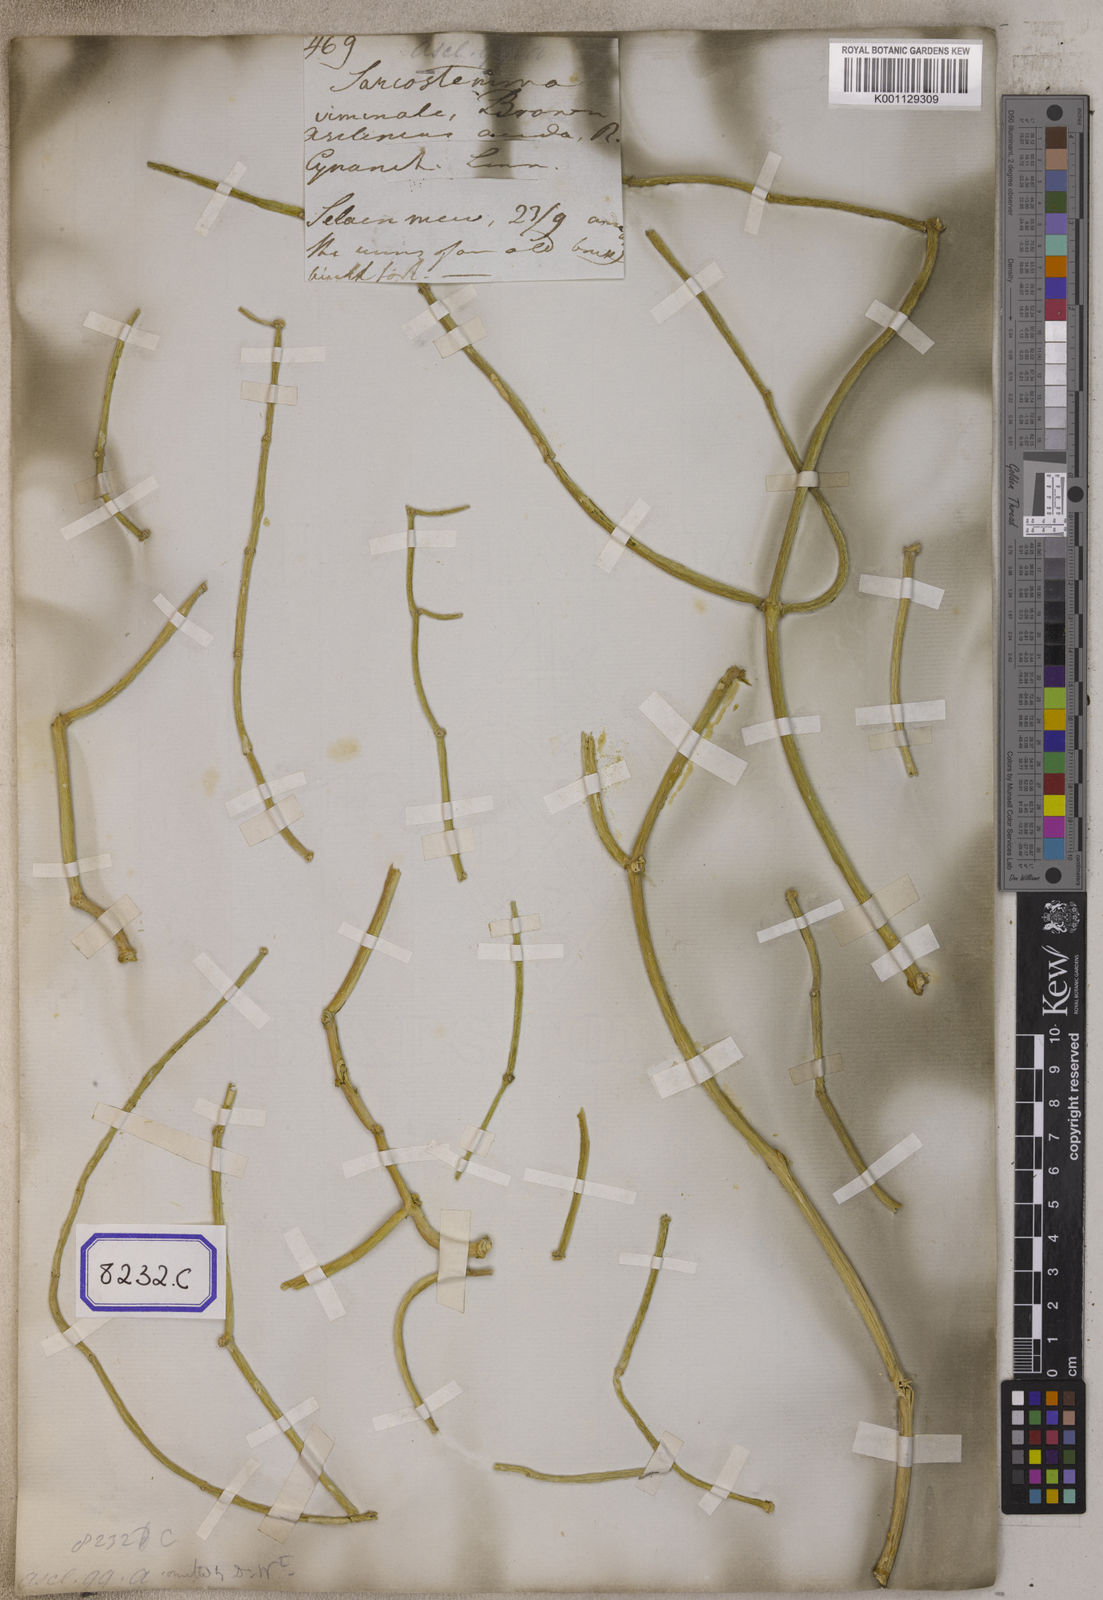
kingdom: Plantae
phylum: Tracheophyta
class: Magnoliopsida
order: Gentianales
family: Apocynaceae
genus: Cynanchum
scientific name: Cynanchum viminale
